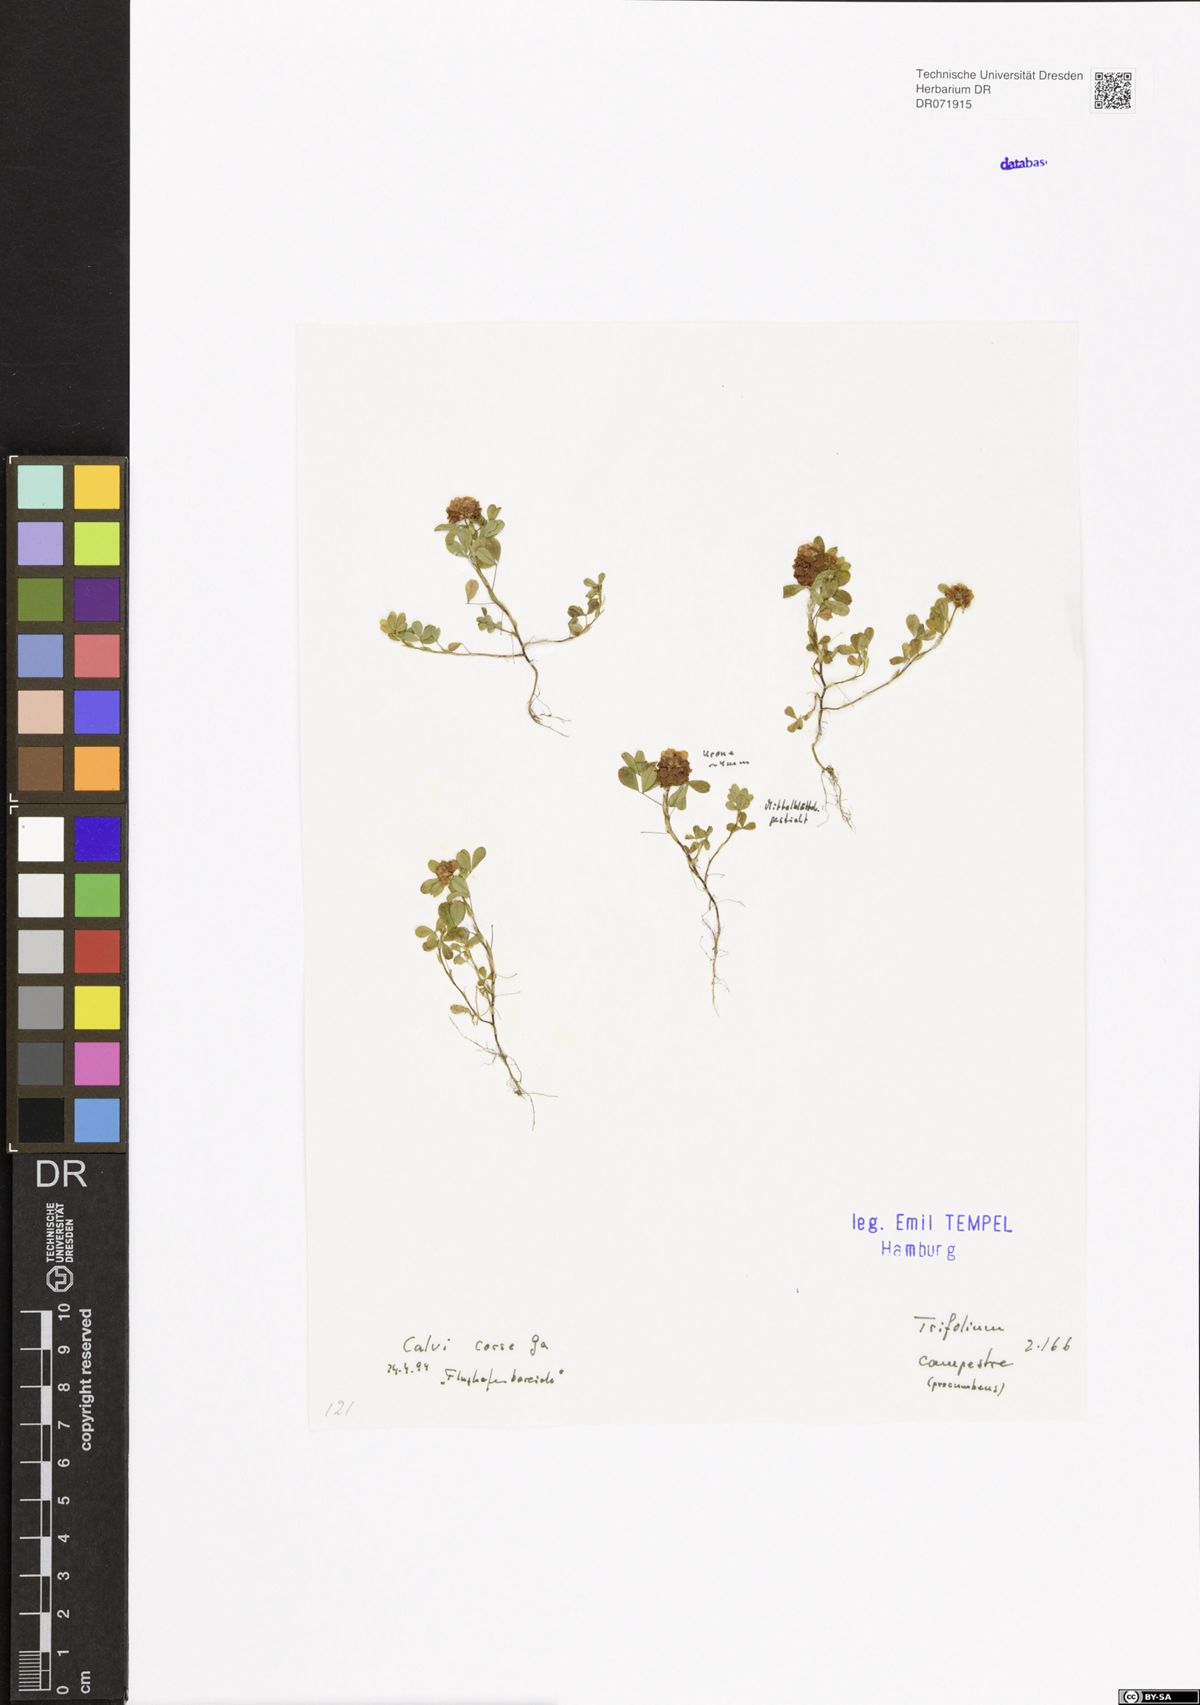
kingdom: Plantae
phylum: Tracheophyta
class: Magnoliopsida
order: Fabales
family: Fabaceae
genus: Trifolium
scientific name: Trifolium campestre
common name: Field clover
